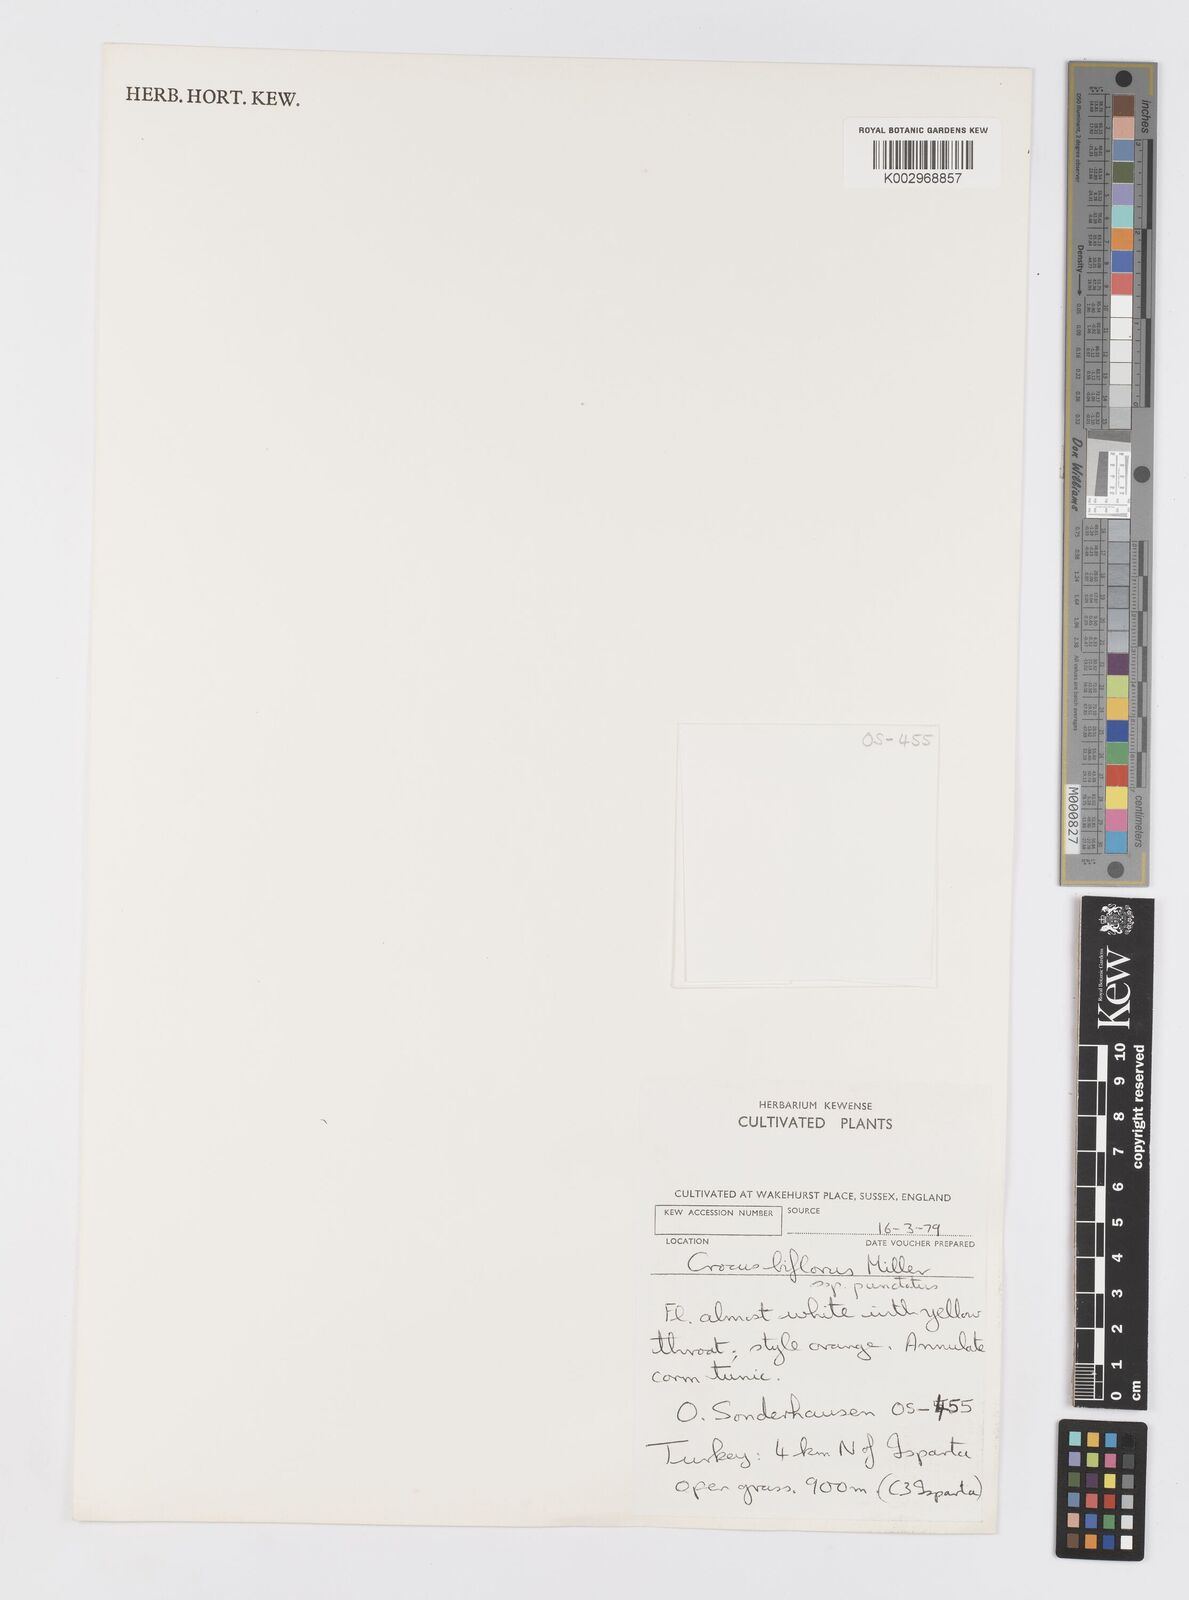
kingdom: Plantae
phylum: Tracheophyta
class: Liliopsida
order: Asparagales
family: Iridaceae
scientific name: Iridaceae
